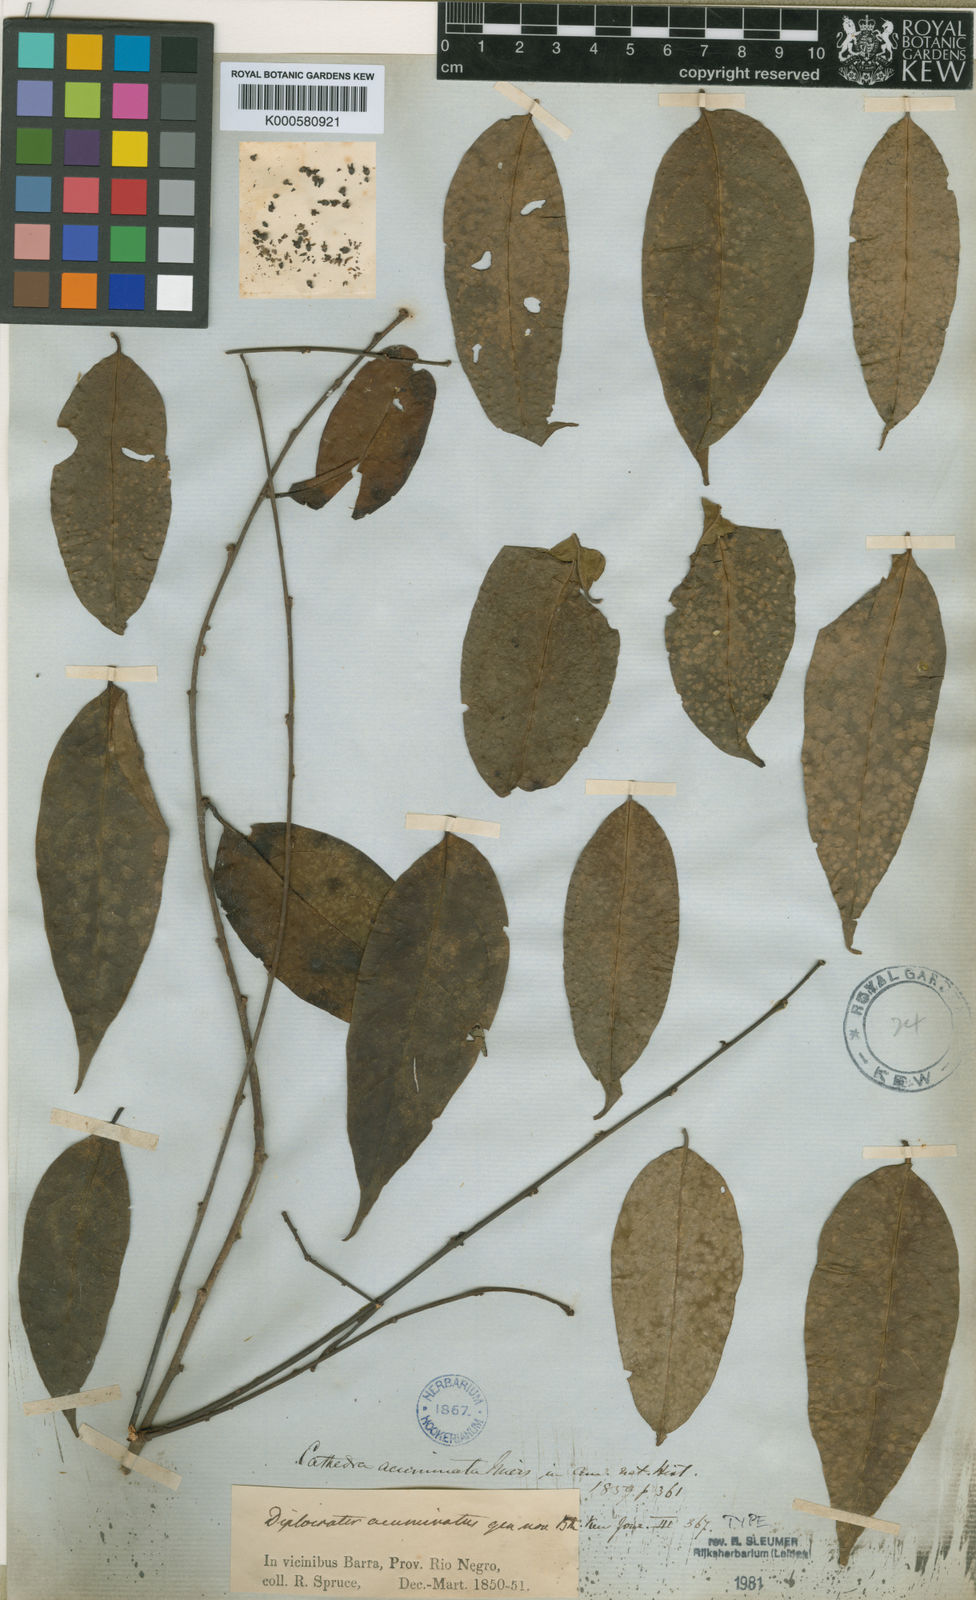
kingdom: Plantae
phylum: Tracheophyta
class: Magnoliopsida
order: Santalales
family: Aptandraceae
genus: Cathedra
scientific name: Cathedra acuminata
